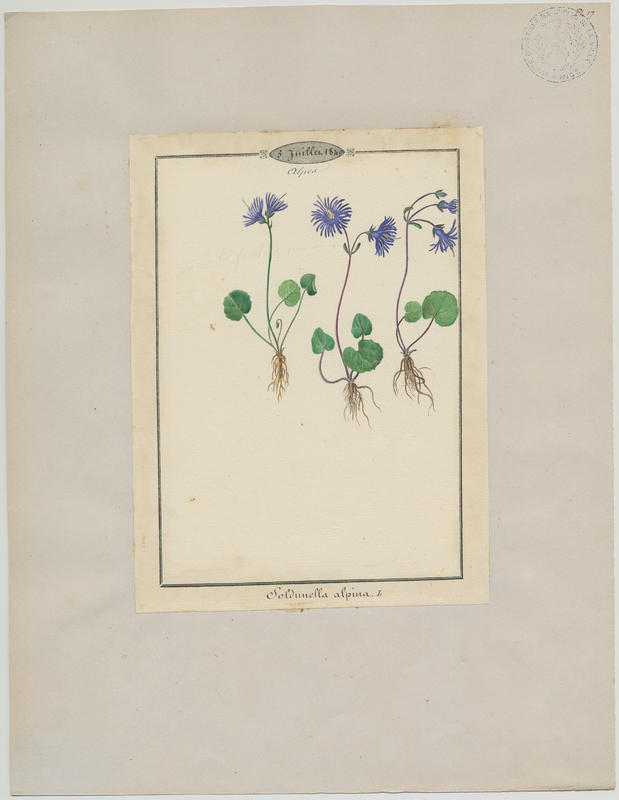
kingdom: Plantae
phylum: Tracheophyta
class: Magnoliopsida
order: Ericales
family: Primulaceae
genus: Soldanella
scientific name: Soldanella alpina
